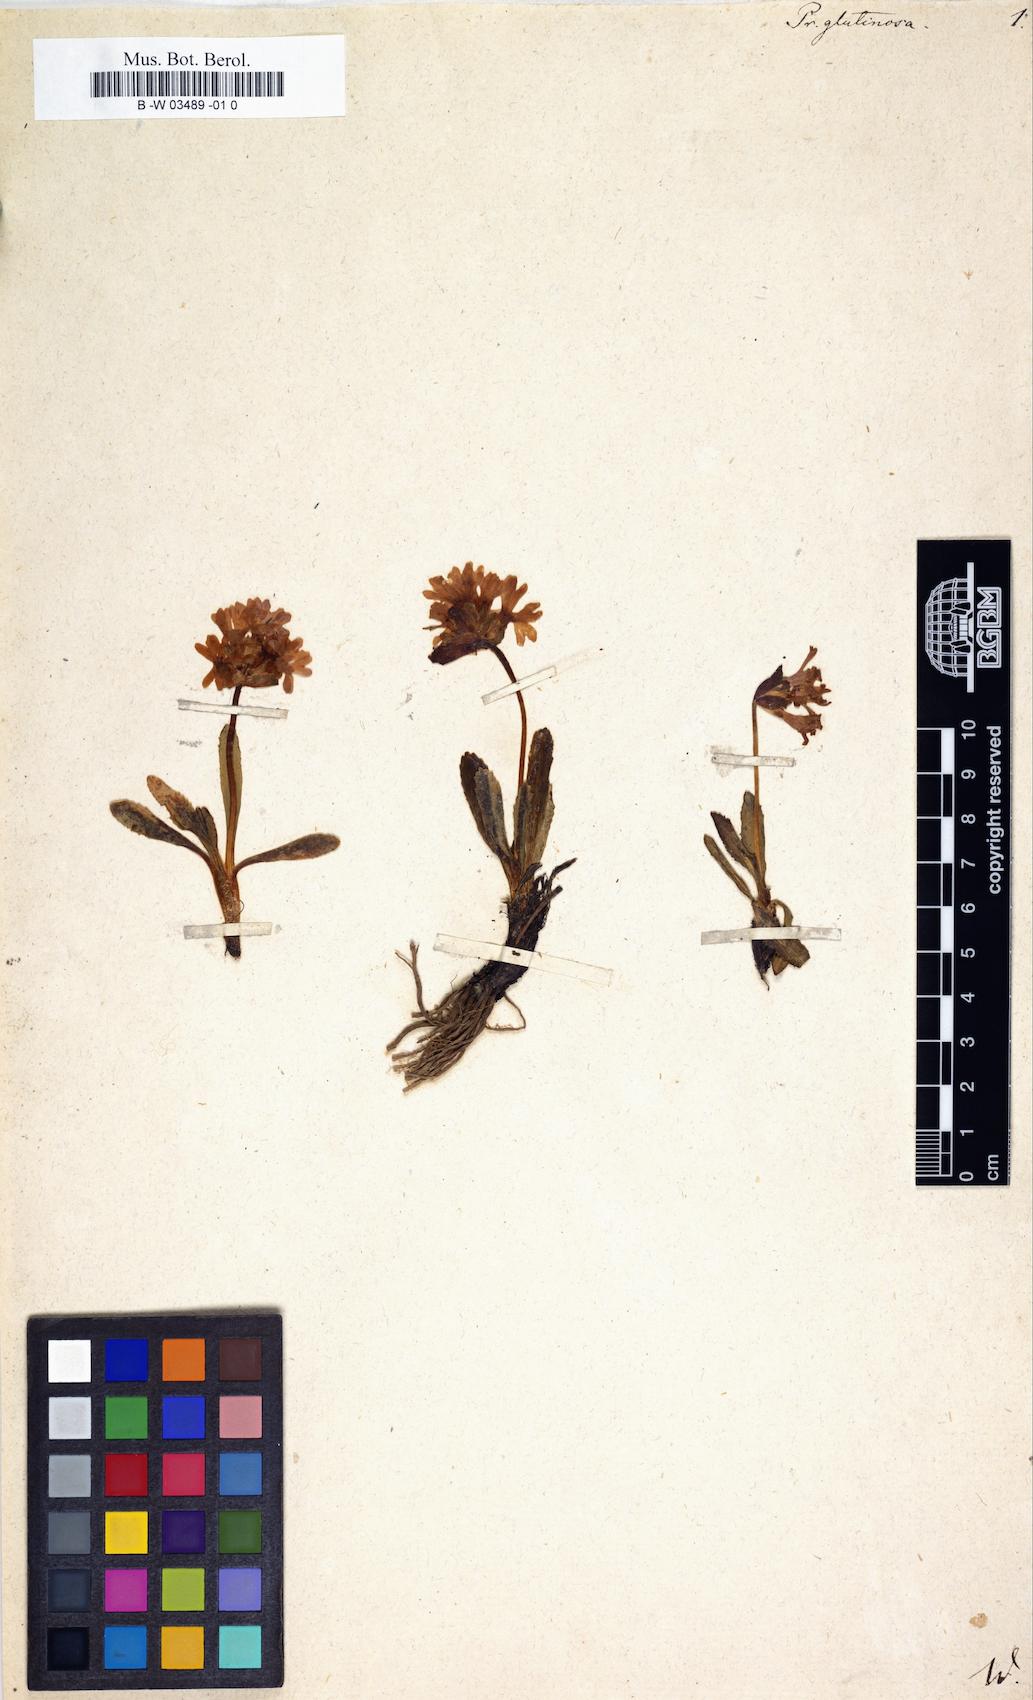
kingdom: Plantae
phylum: Tracheophyta
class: Magnoliopsida
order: Ericales
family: Primulaceae
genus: Primula
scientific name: Primula glutinosa
